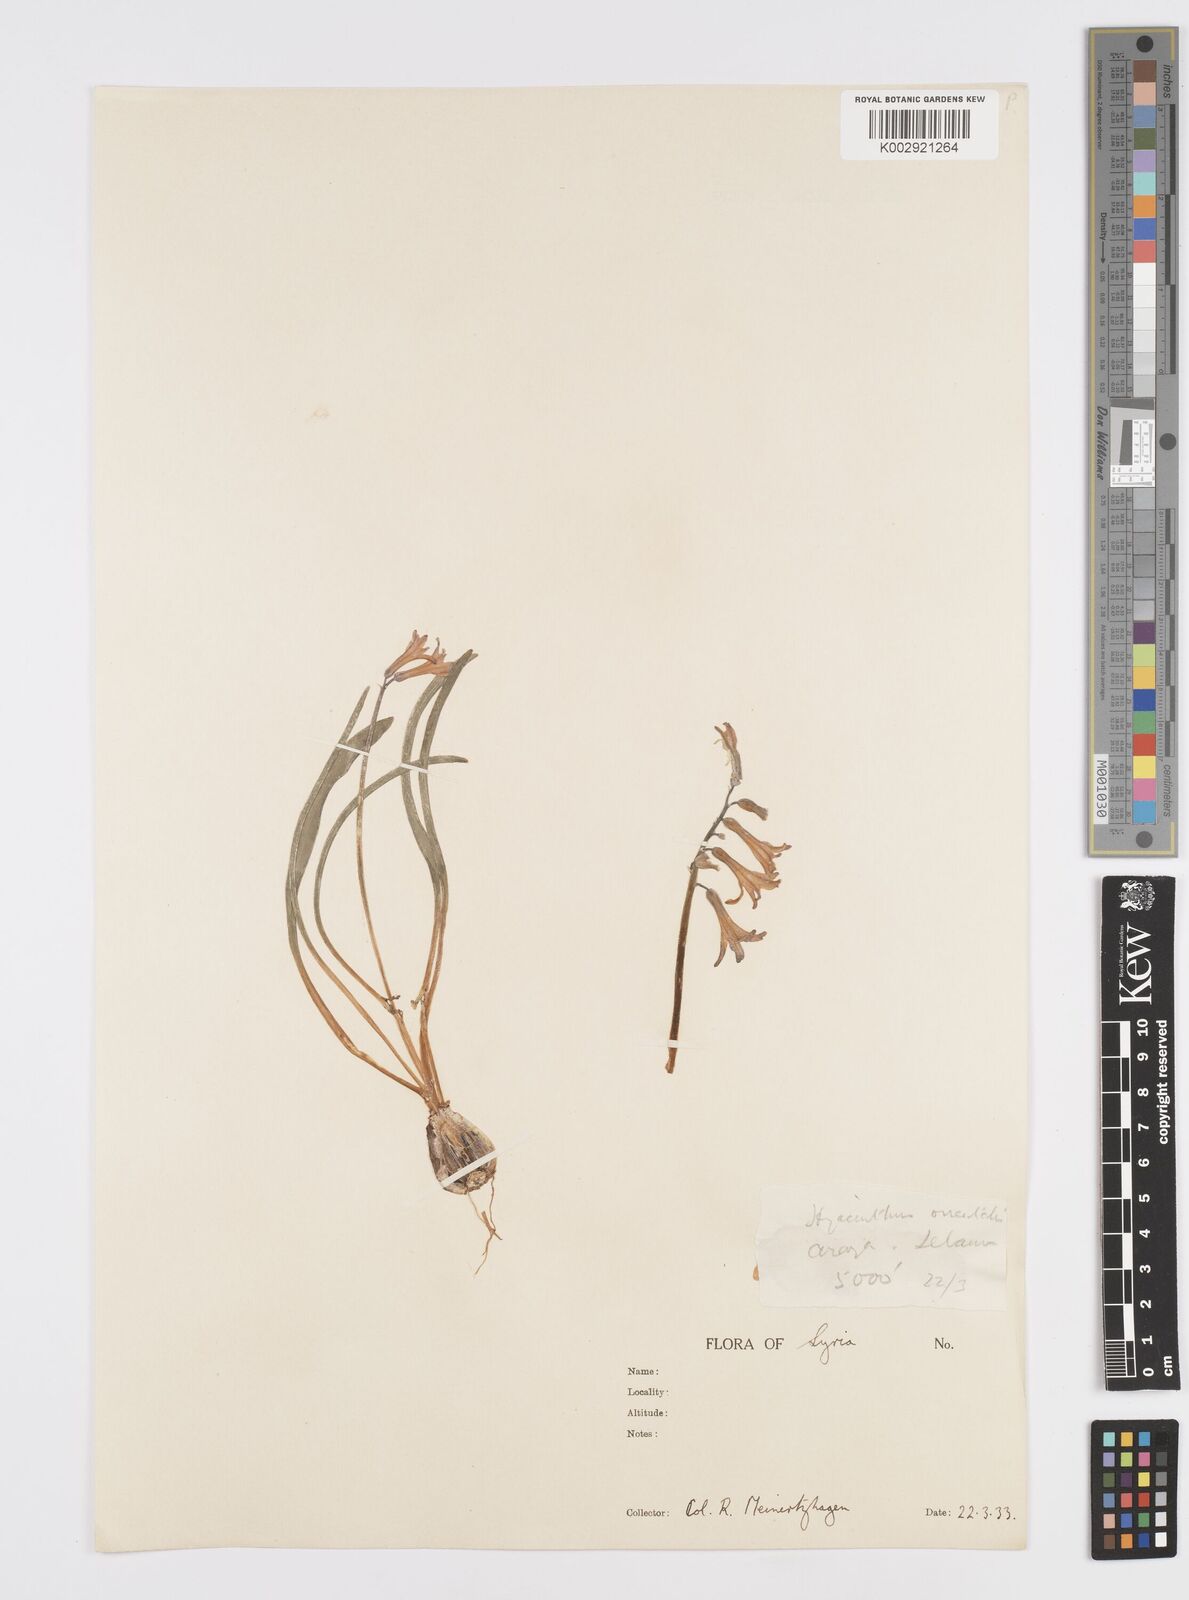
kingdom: Plantae
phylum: Tracheophyta
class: Liliopsida
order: Asparagales
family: Asparagaceae
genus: Hyacinthus
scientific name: Hyacinthus orientalis
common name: Hyacinth
